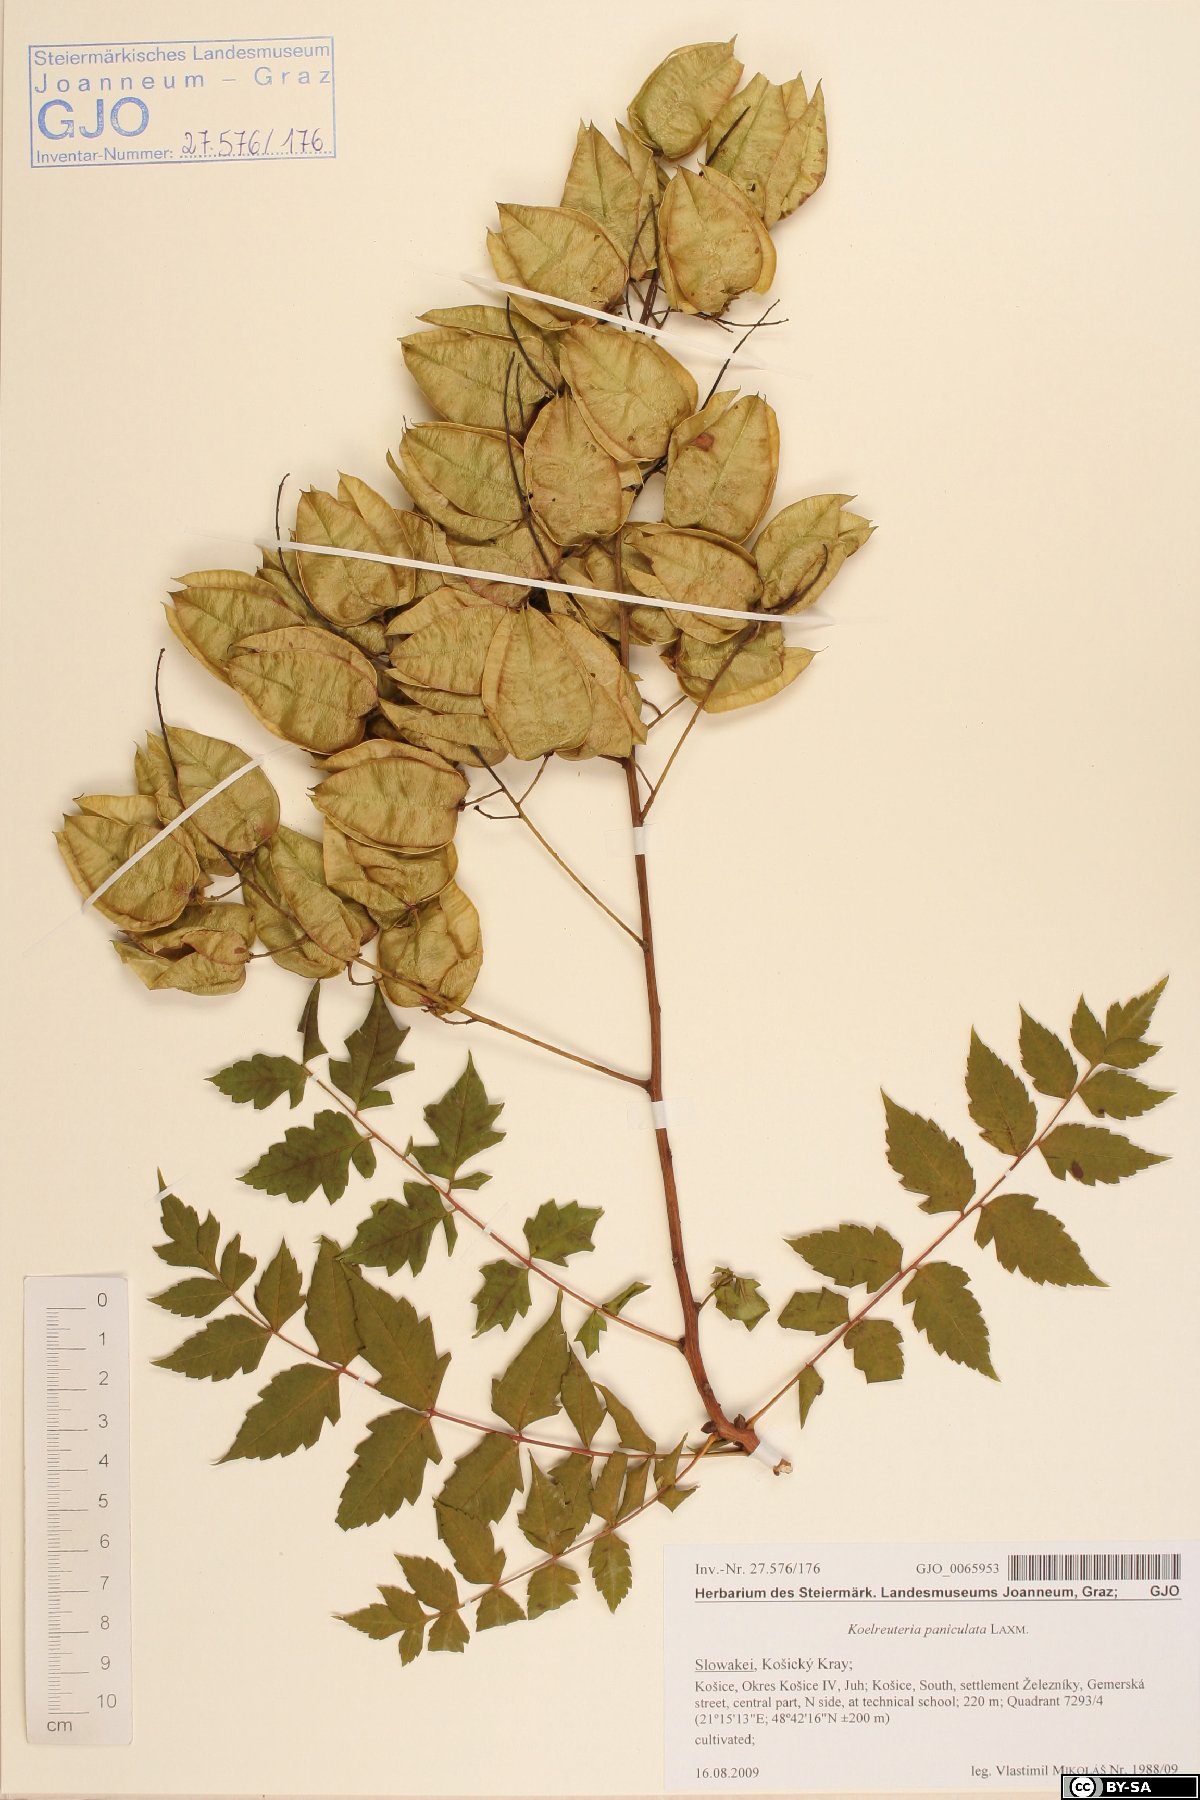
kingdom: Plantae
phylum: Tracheophyta
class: Magnoliopsida
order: Sapindales
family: Sapindaceae
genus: Koelreuteria
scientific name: Koelreuteria paniculata
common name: Pride-of-india
